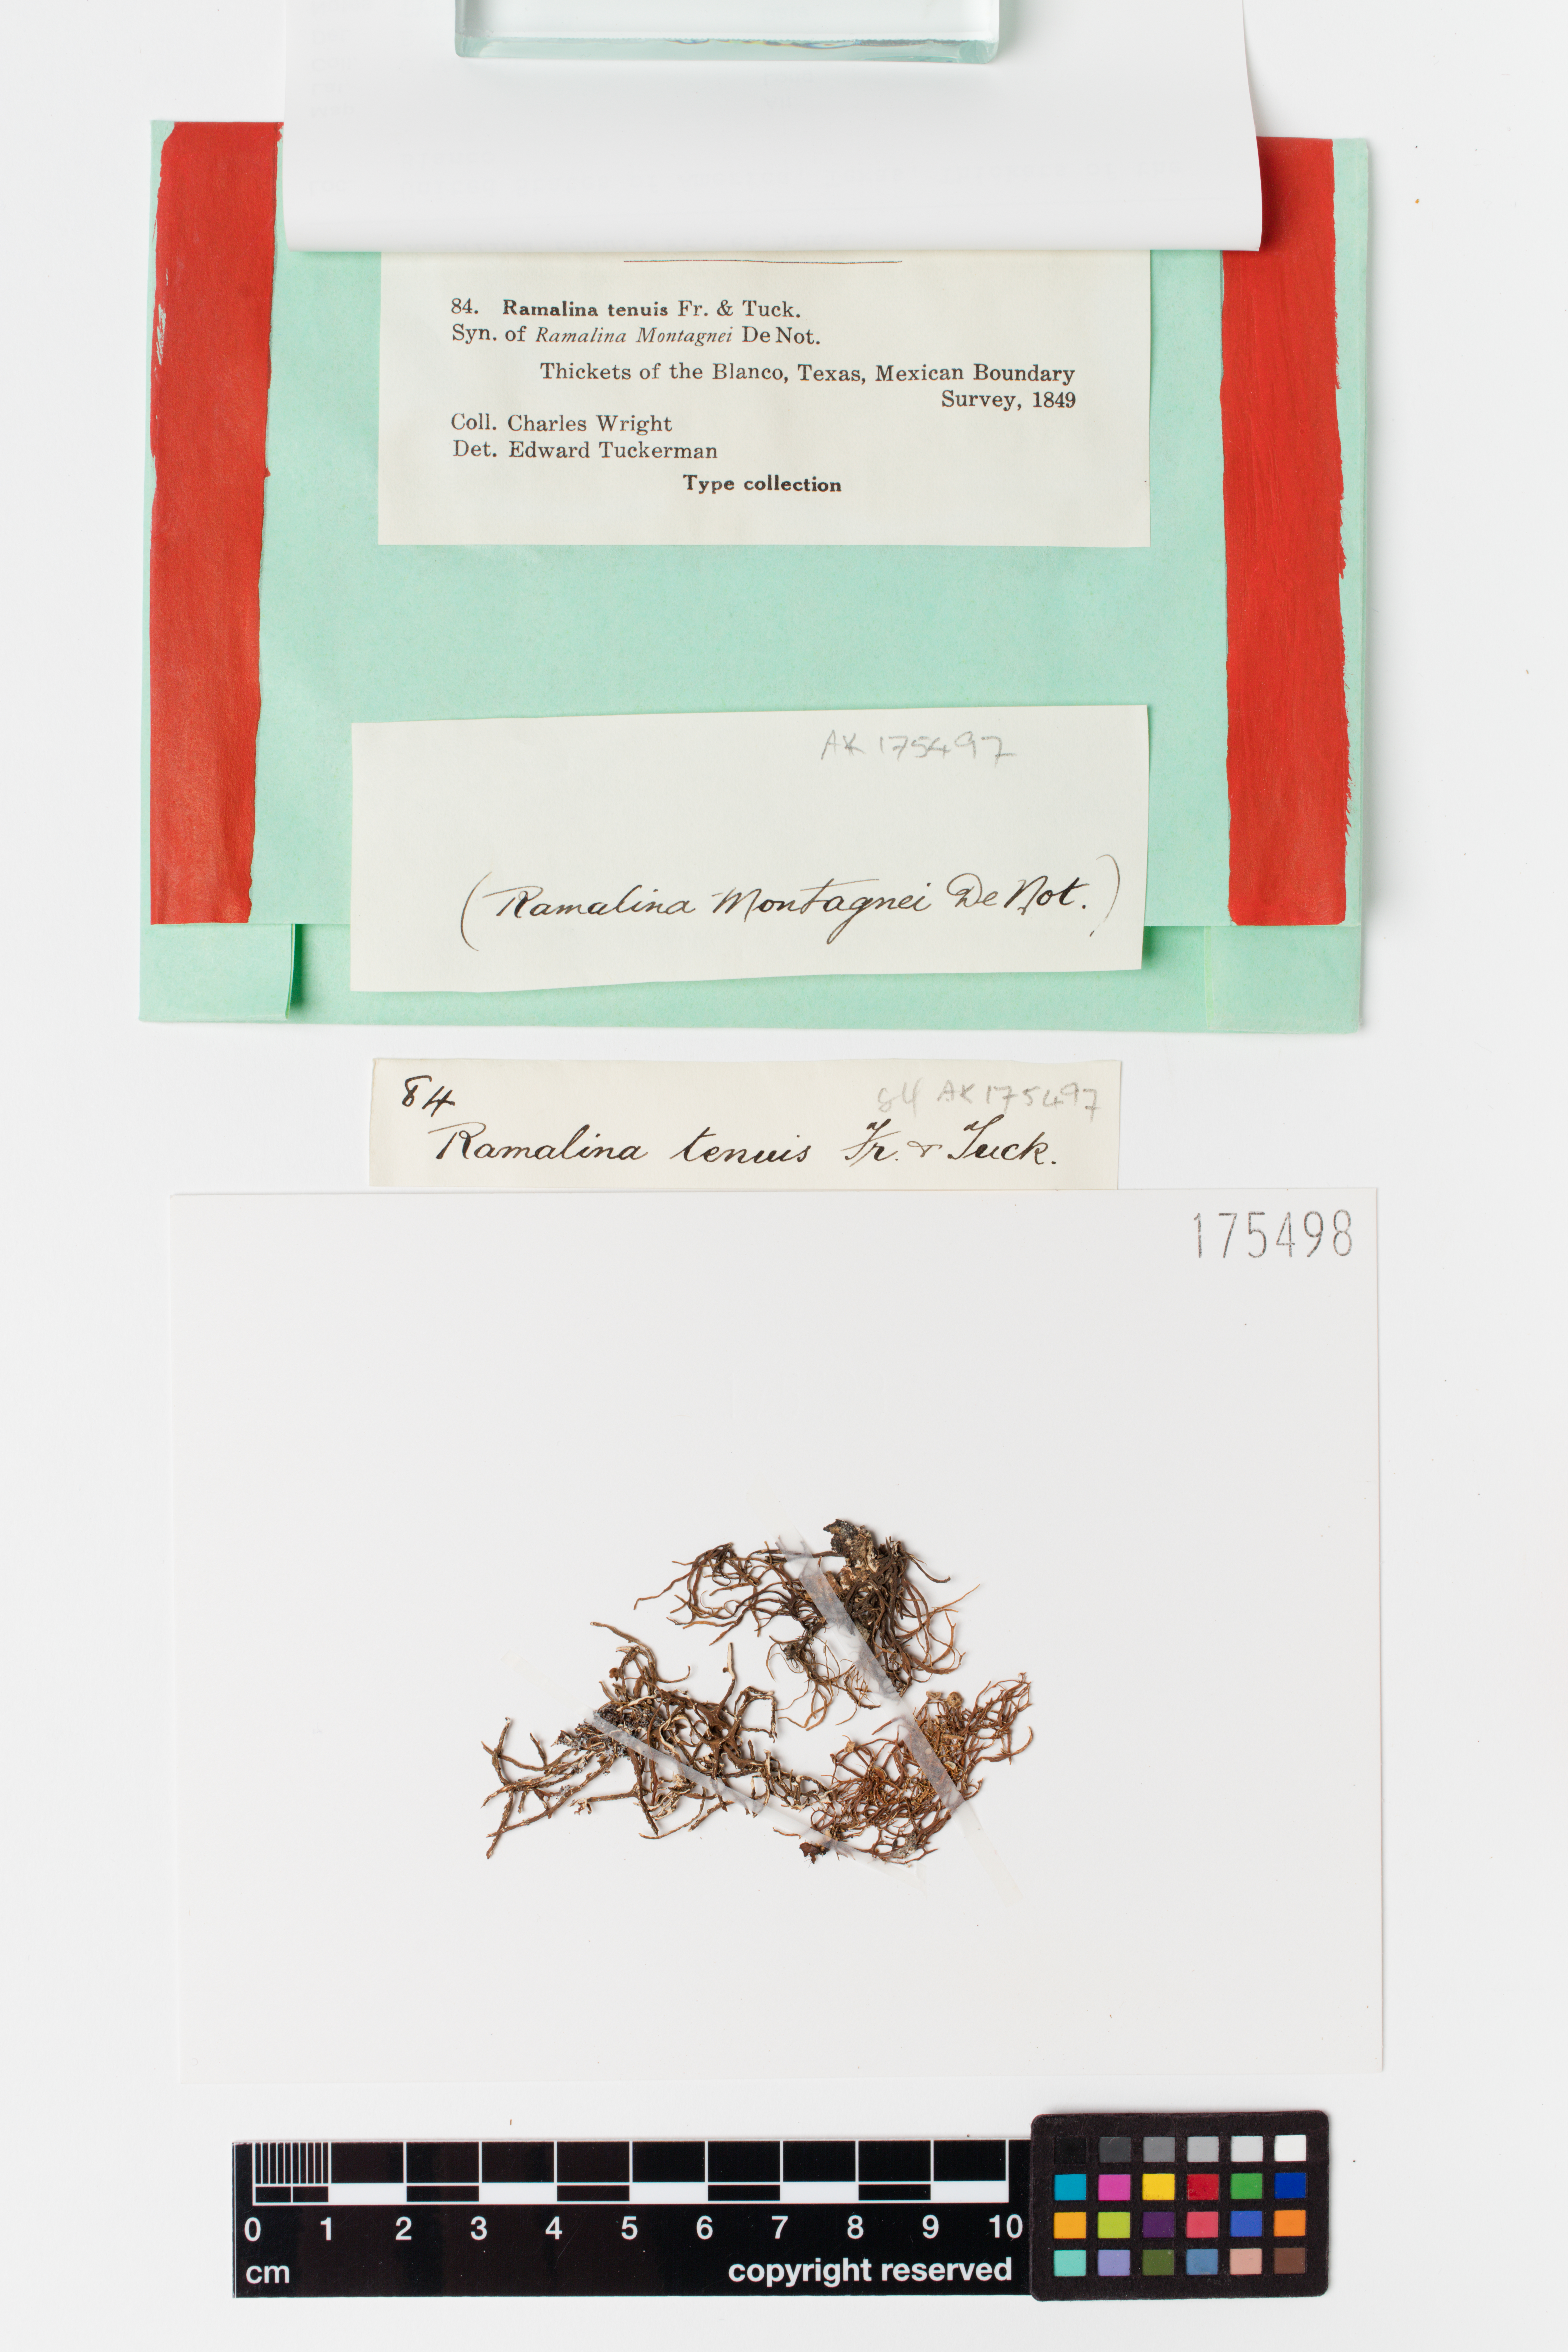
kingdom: Fungi
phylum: Ascomycota
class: Lecanoromycetes
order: Lecanorales
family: Ramalinaceae
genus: Ramalina
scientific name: Ramalina tenuis
